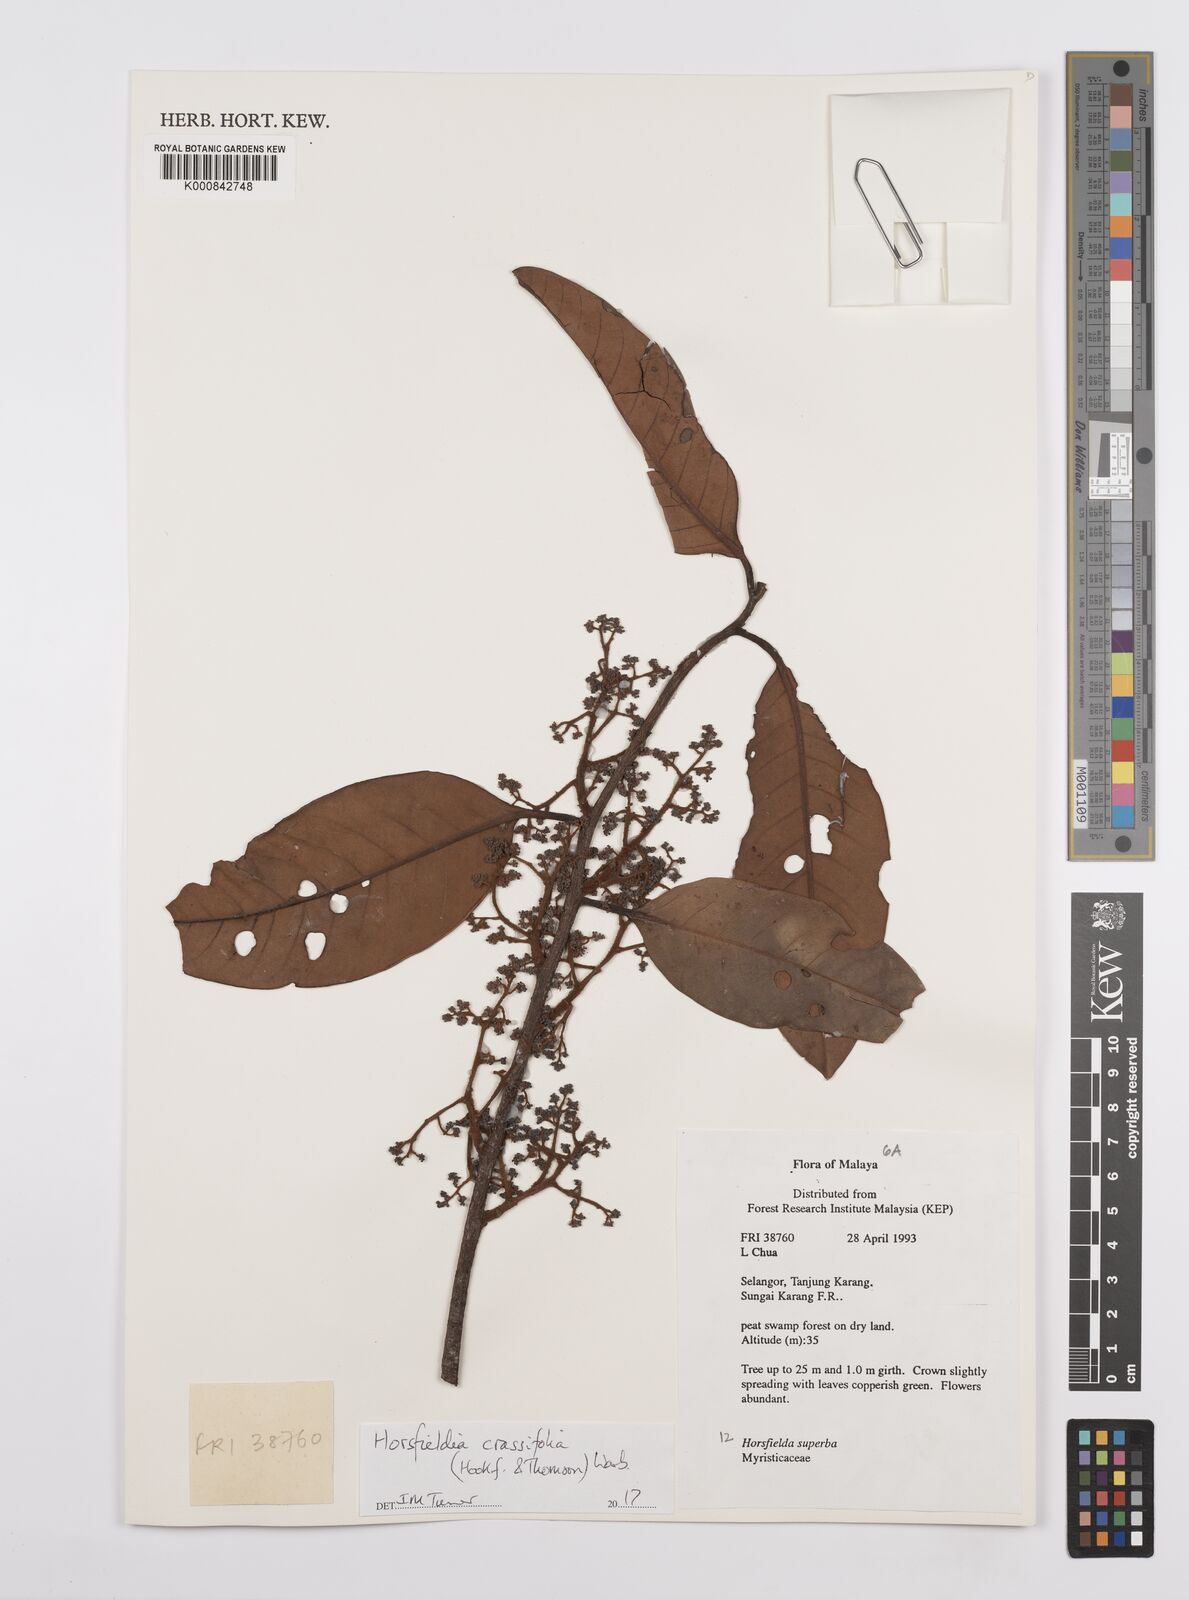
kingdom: Plantae
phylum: Tracheophyta
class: Magnoliopsida
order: Magnoliales
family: Myristicaceae
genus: Horsfieldia
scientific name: Horsfieldia crassifolia
